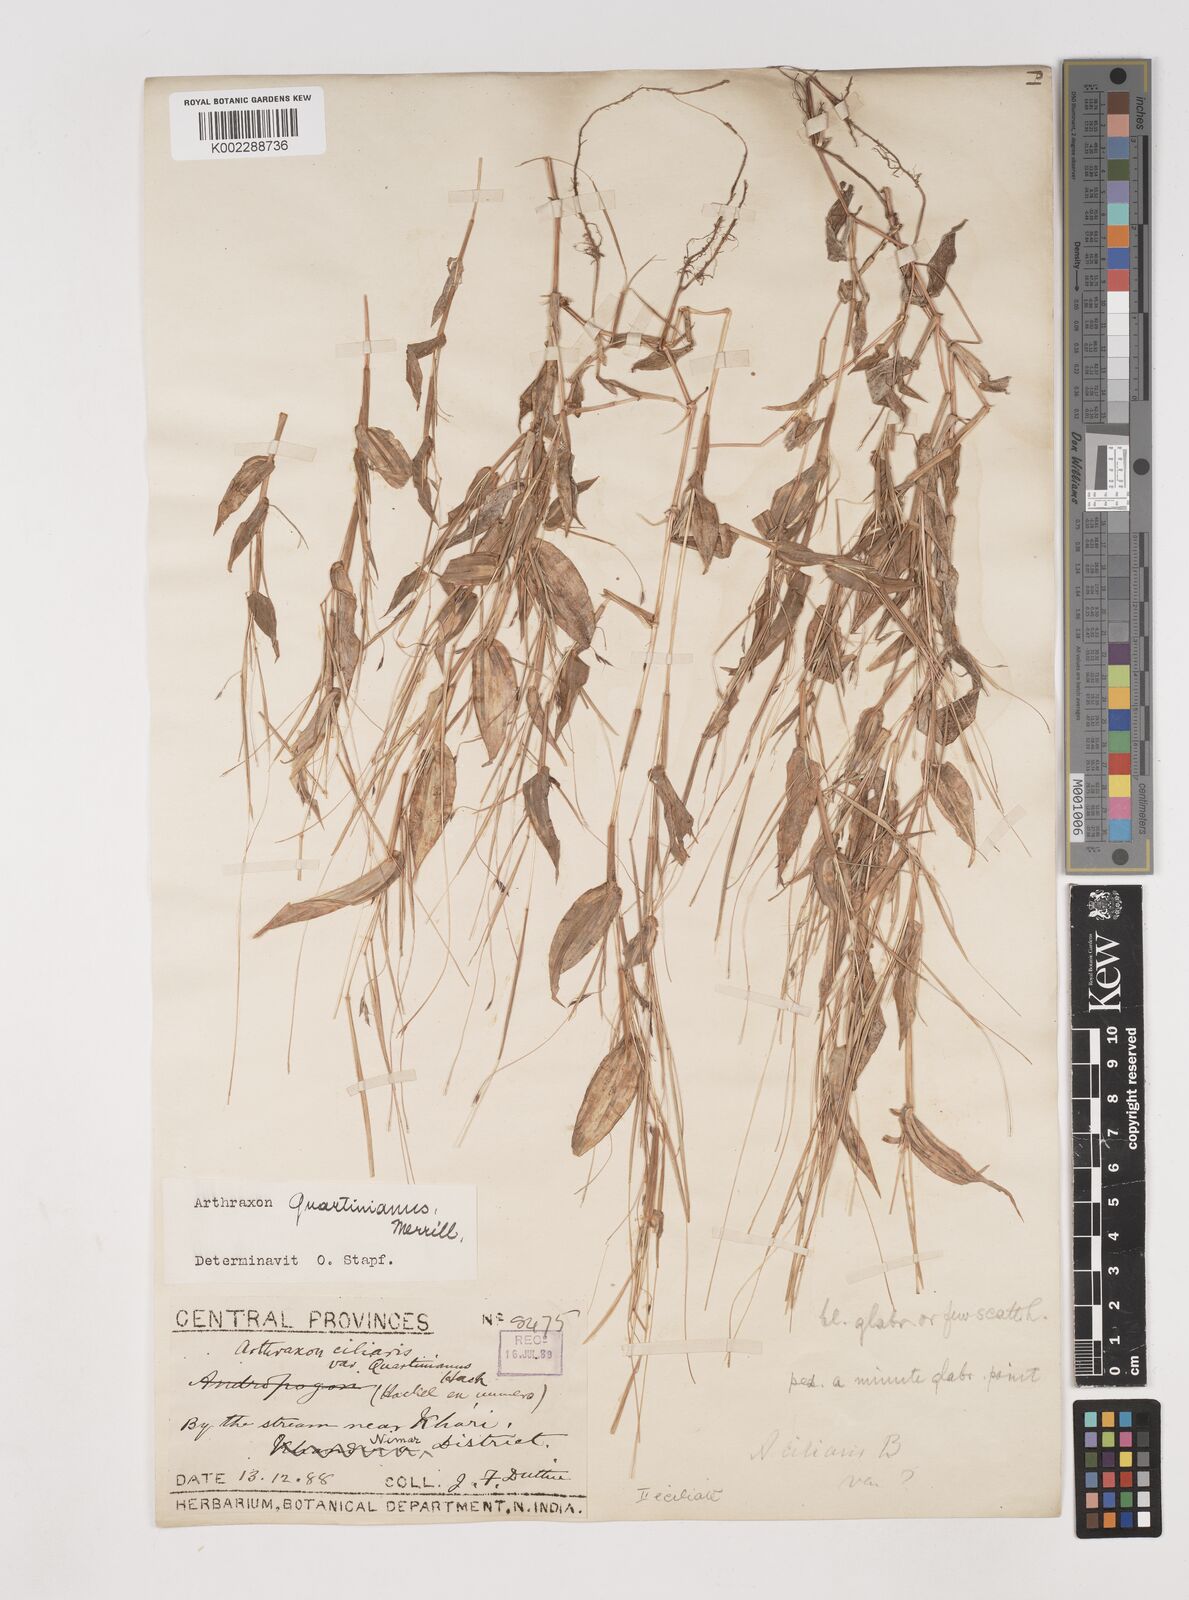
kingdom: Plantae
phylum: Tracheophyta
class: Liliopsida
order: Poales
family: Poaceae
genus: Arthraxon
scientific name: Arthraxon hispidus
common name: Small carpgrass
